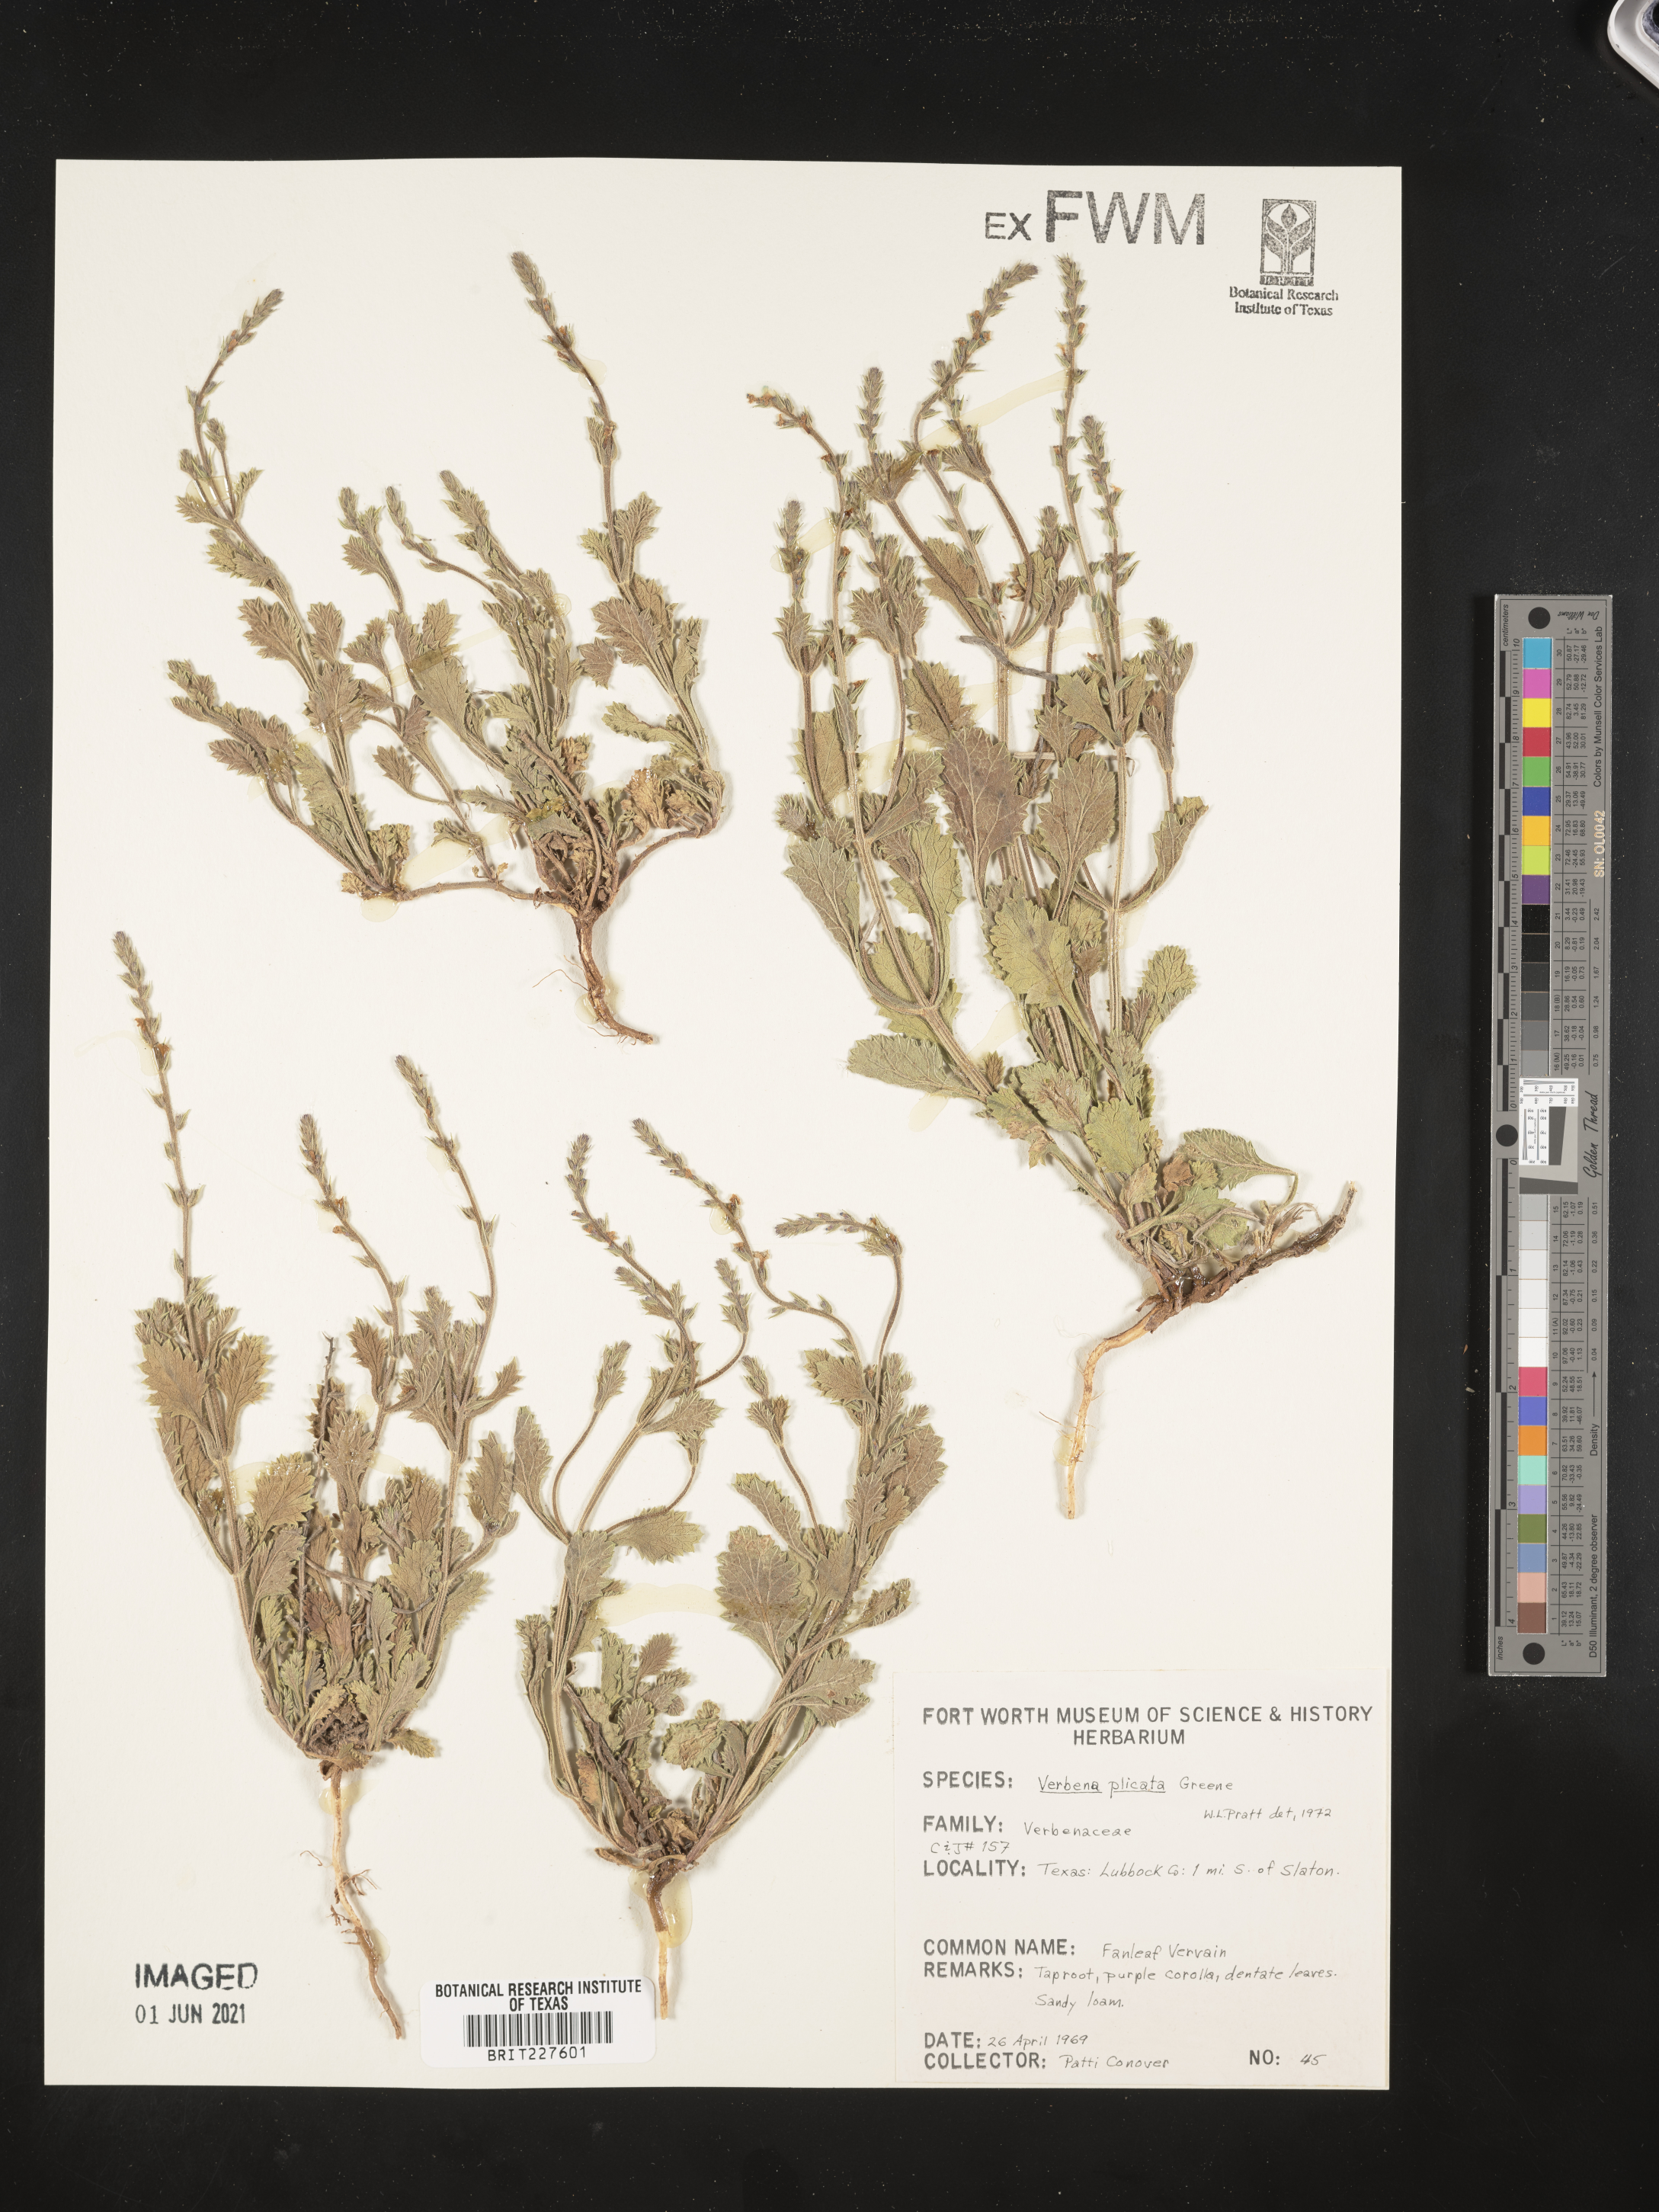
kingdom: Plantae
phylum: Tracheophyta
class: Magnoliopsida
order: Lamiales
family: Verbenaceae
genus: Verbena
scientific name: Verbena plicata
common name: Fan-leaf vervain
